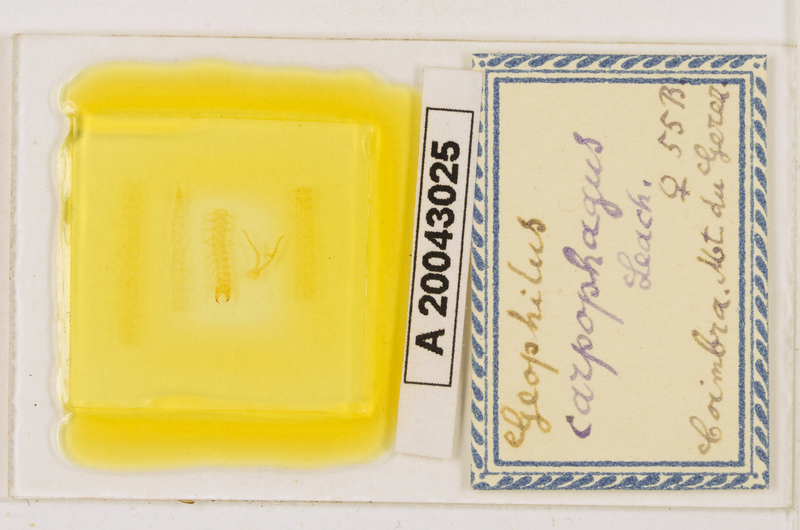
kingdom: Animalia
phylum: Arthropoda
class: Chilopoda
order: Geophilomorpha
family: Geophilidae
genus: Geophilus
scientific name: Geophilus carpophagus
